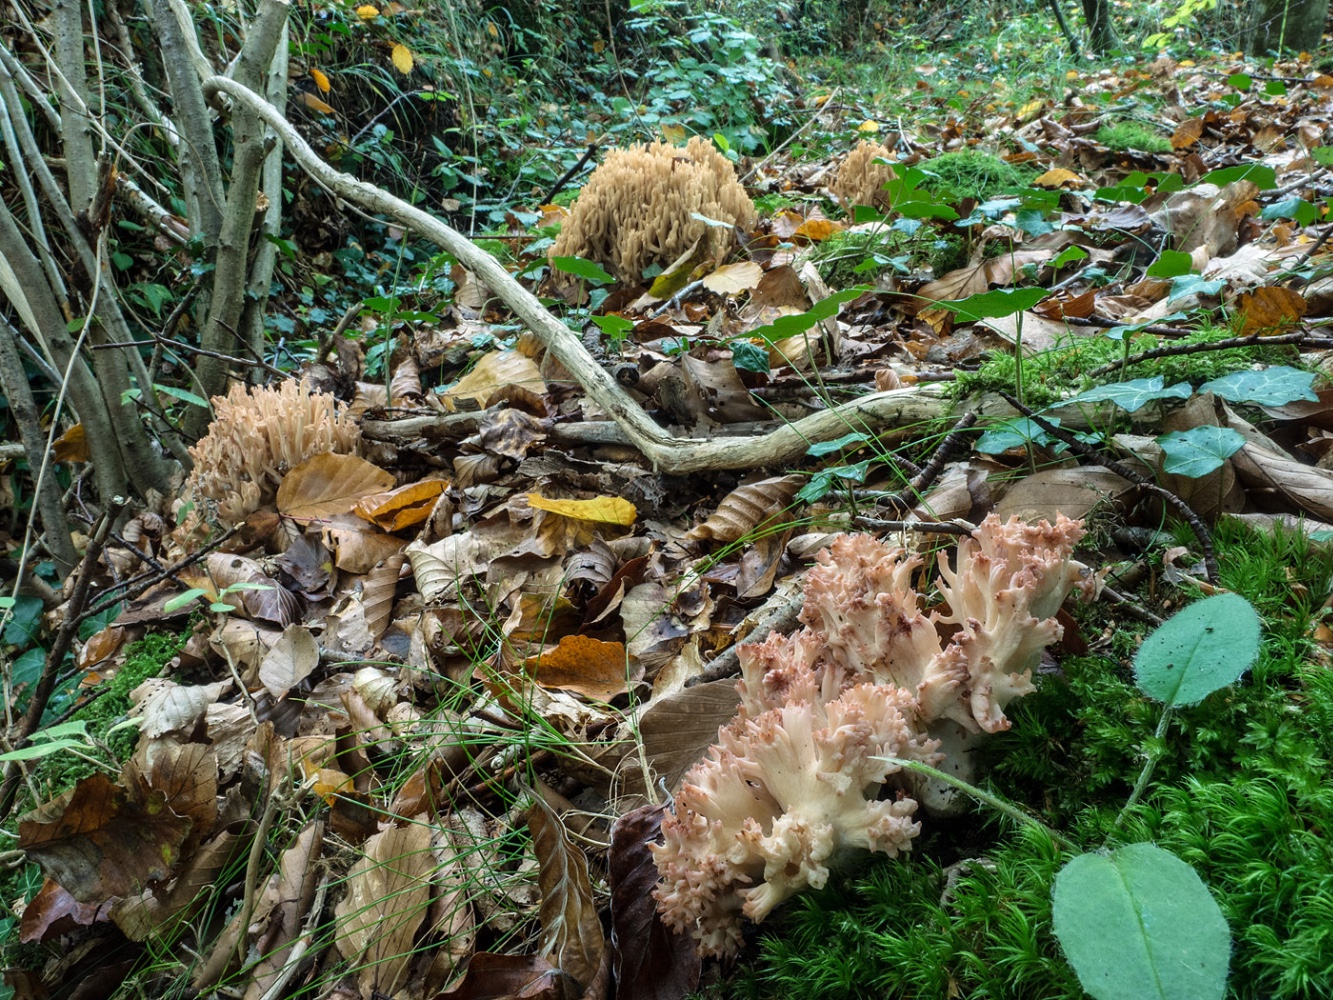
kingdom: Fungi
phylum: Basidiomycota
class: Agaricomycetes
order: Gomphales
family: Gomphaceae
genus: Ramaria
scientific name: Ramaria botrytis
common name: drue-koralsvamp
